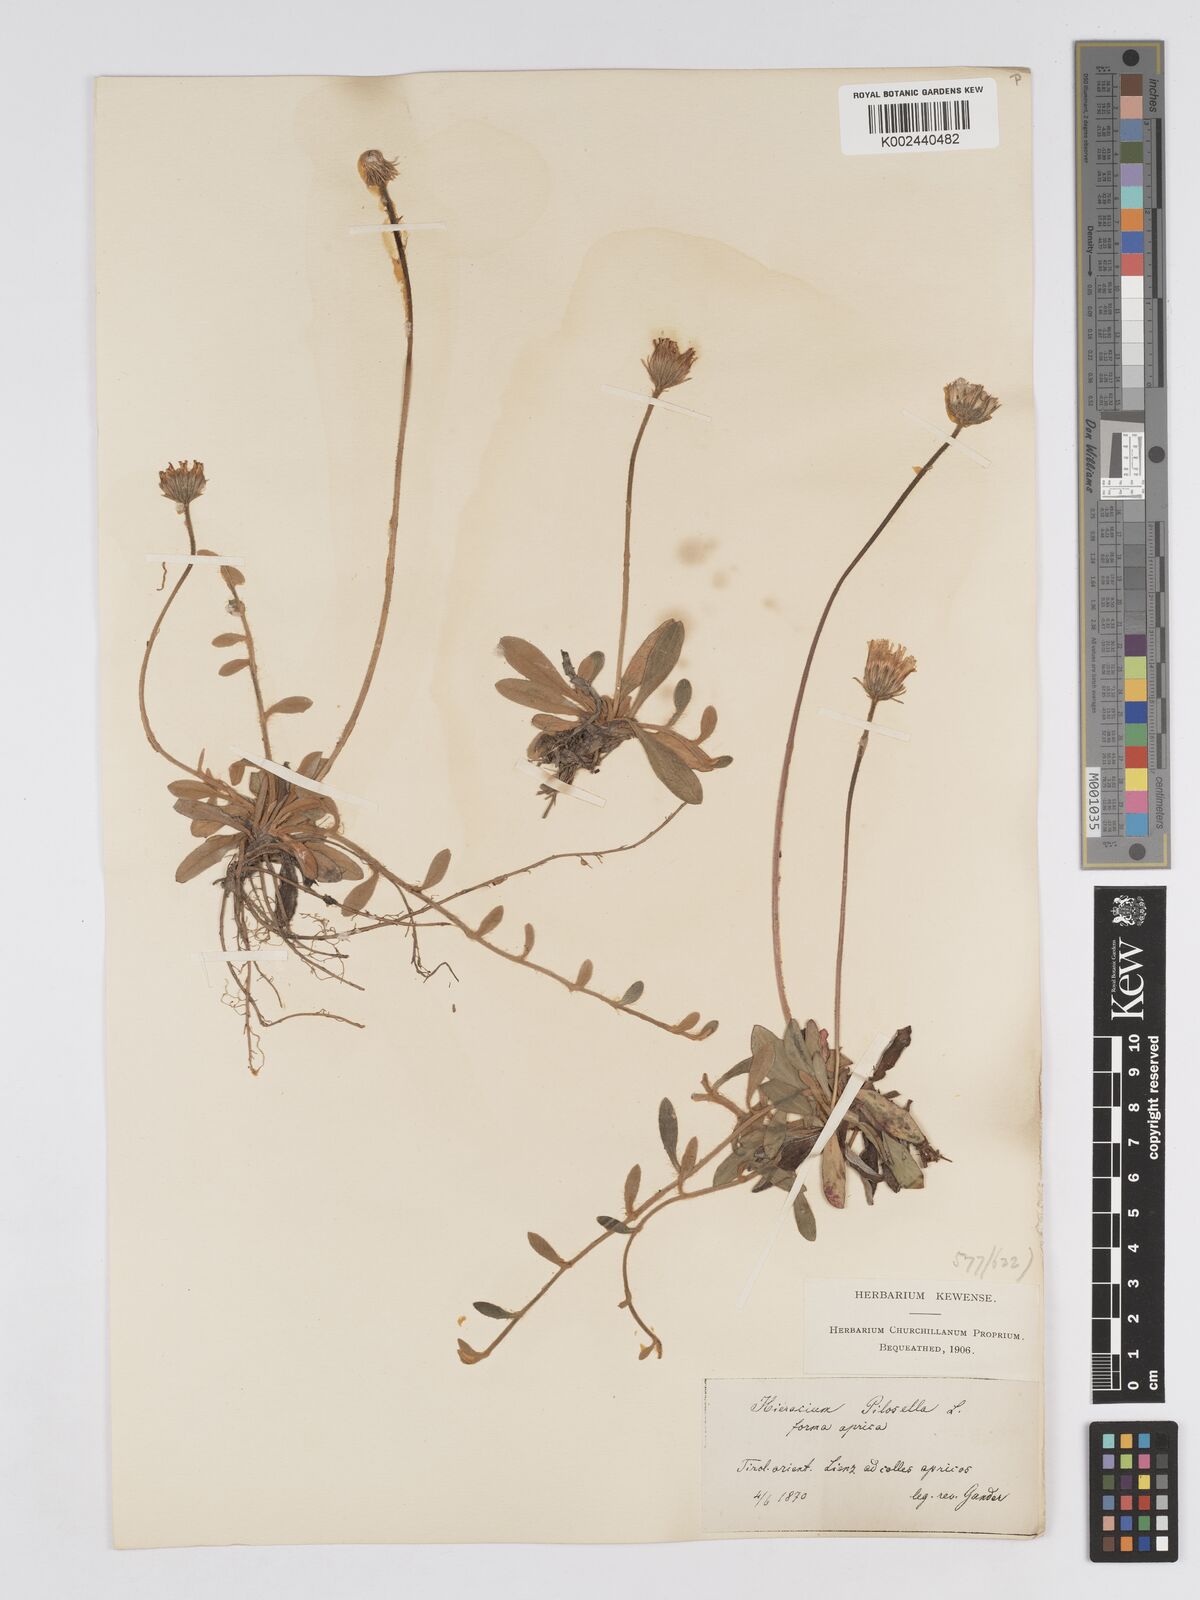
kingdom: Plantae
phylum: Tracheophyta
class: Magnoliopsida
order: Asterales
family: Asteraceae
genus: Pilosella
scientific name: Pilosella velutina
